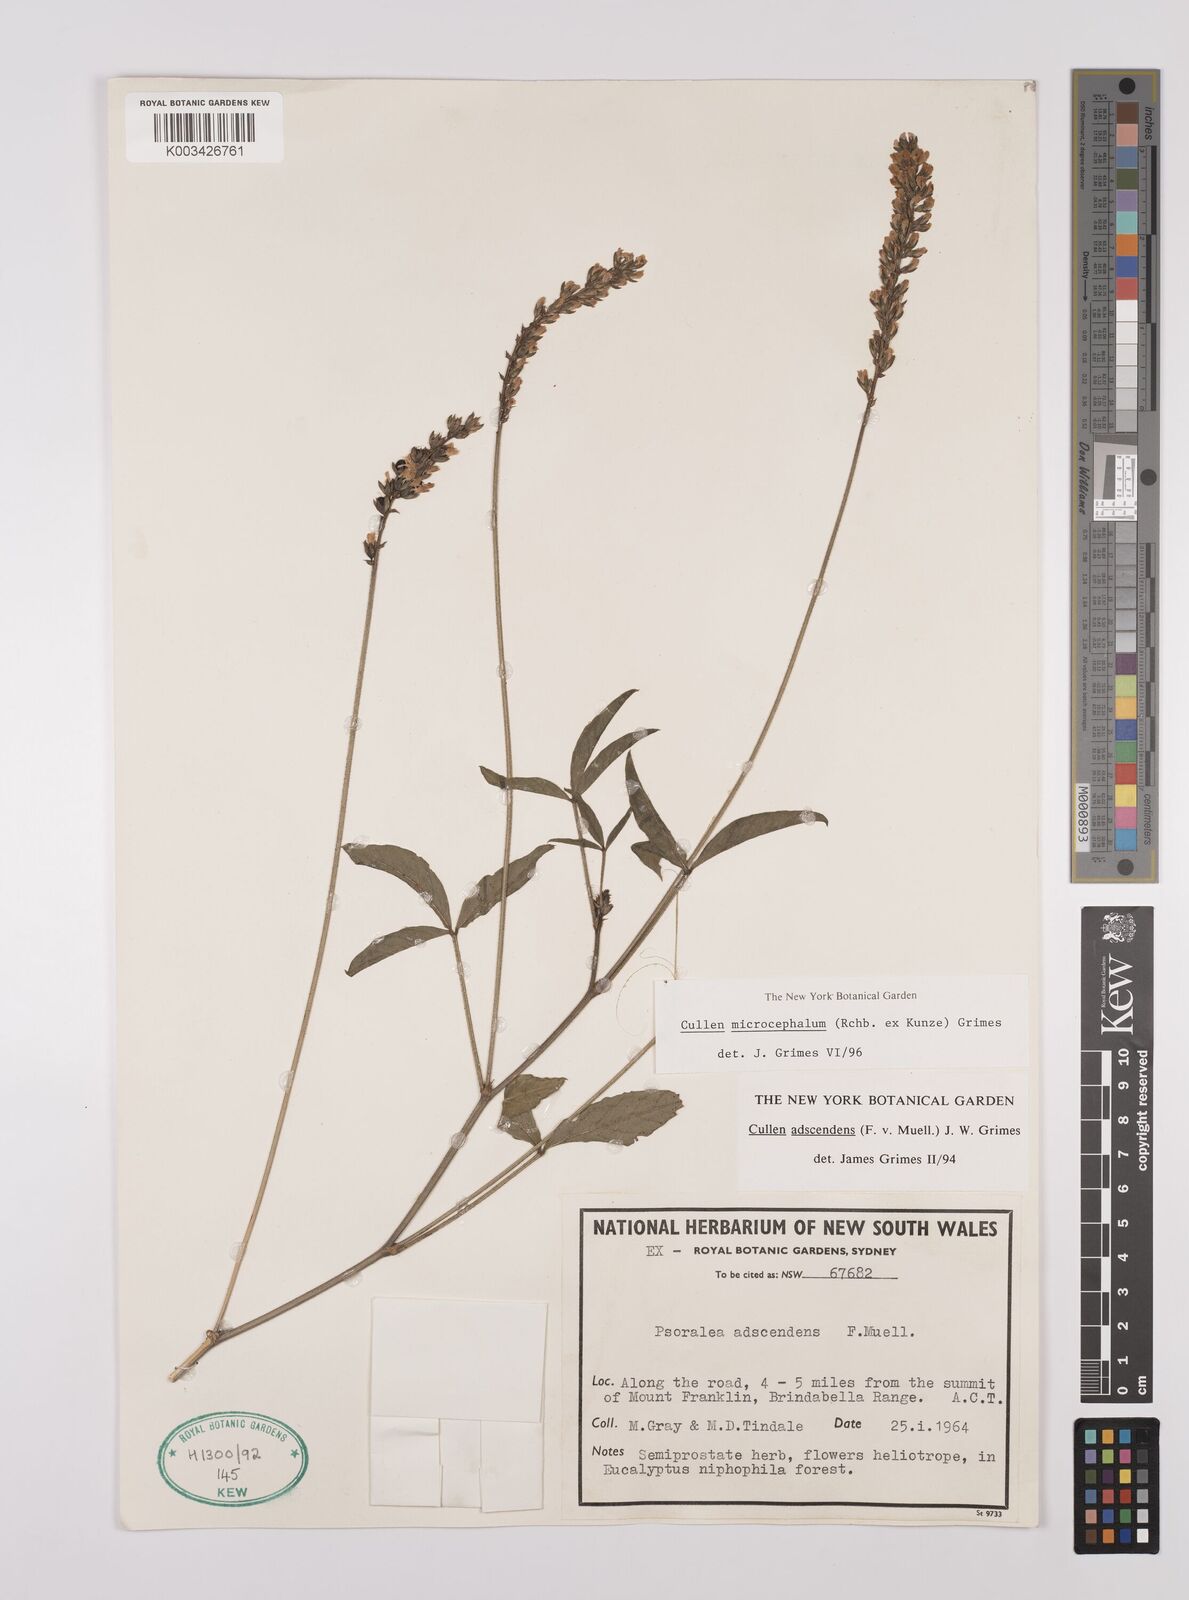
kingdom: Plantae
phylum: Tracheophyta
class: Magnoliopsida
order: Fabales
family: Fabaceae
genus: Cullen
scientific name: Cullen microcephalum
